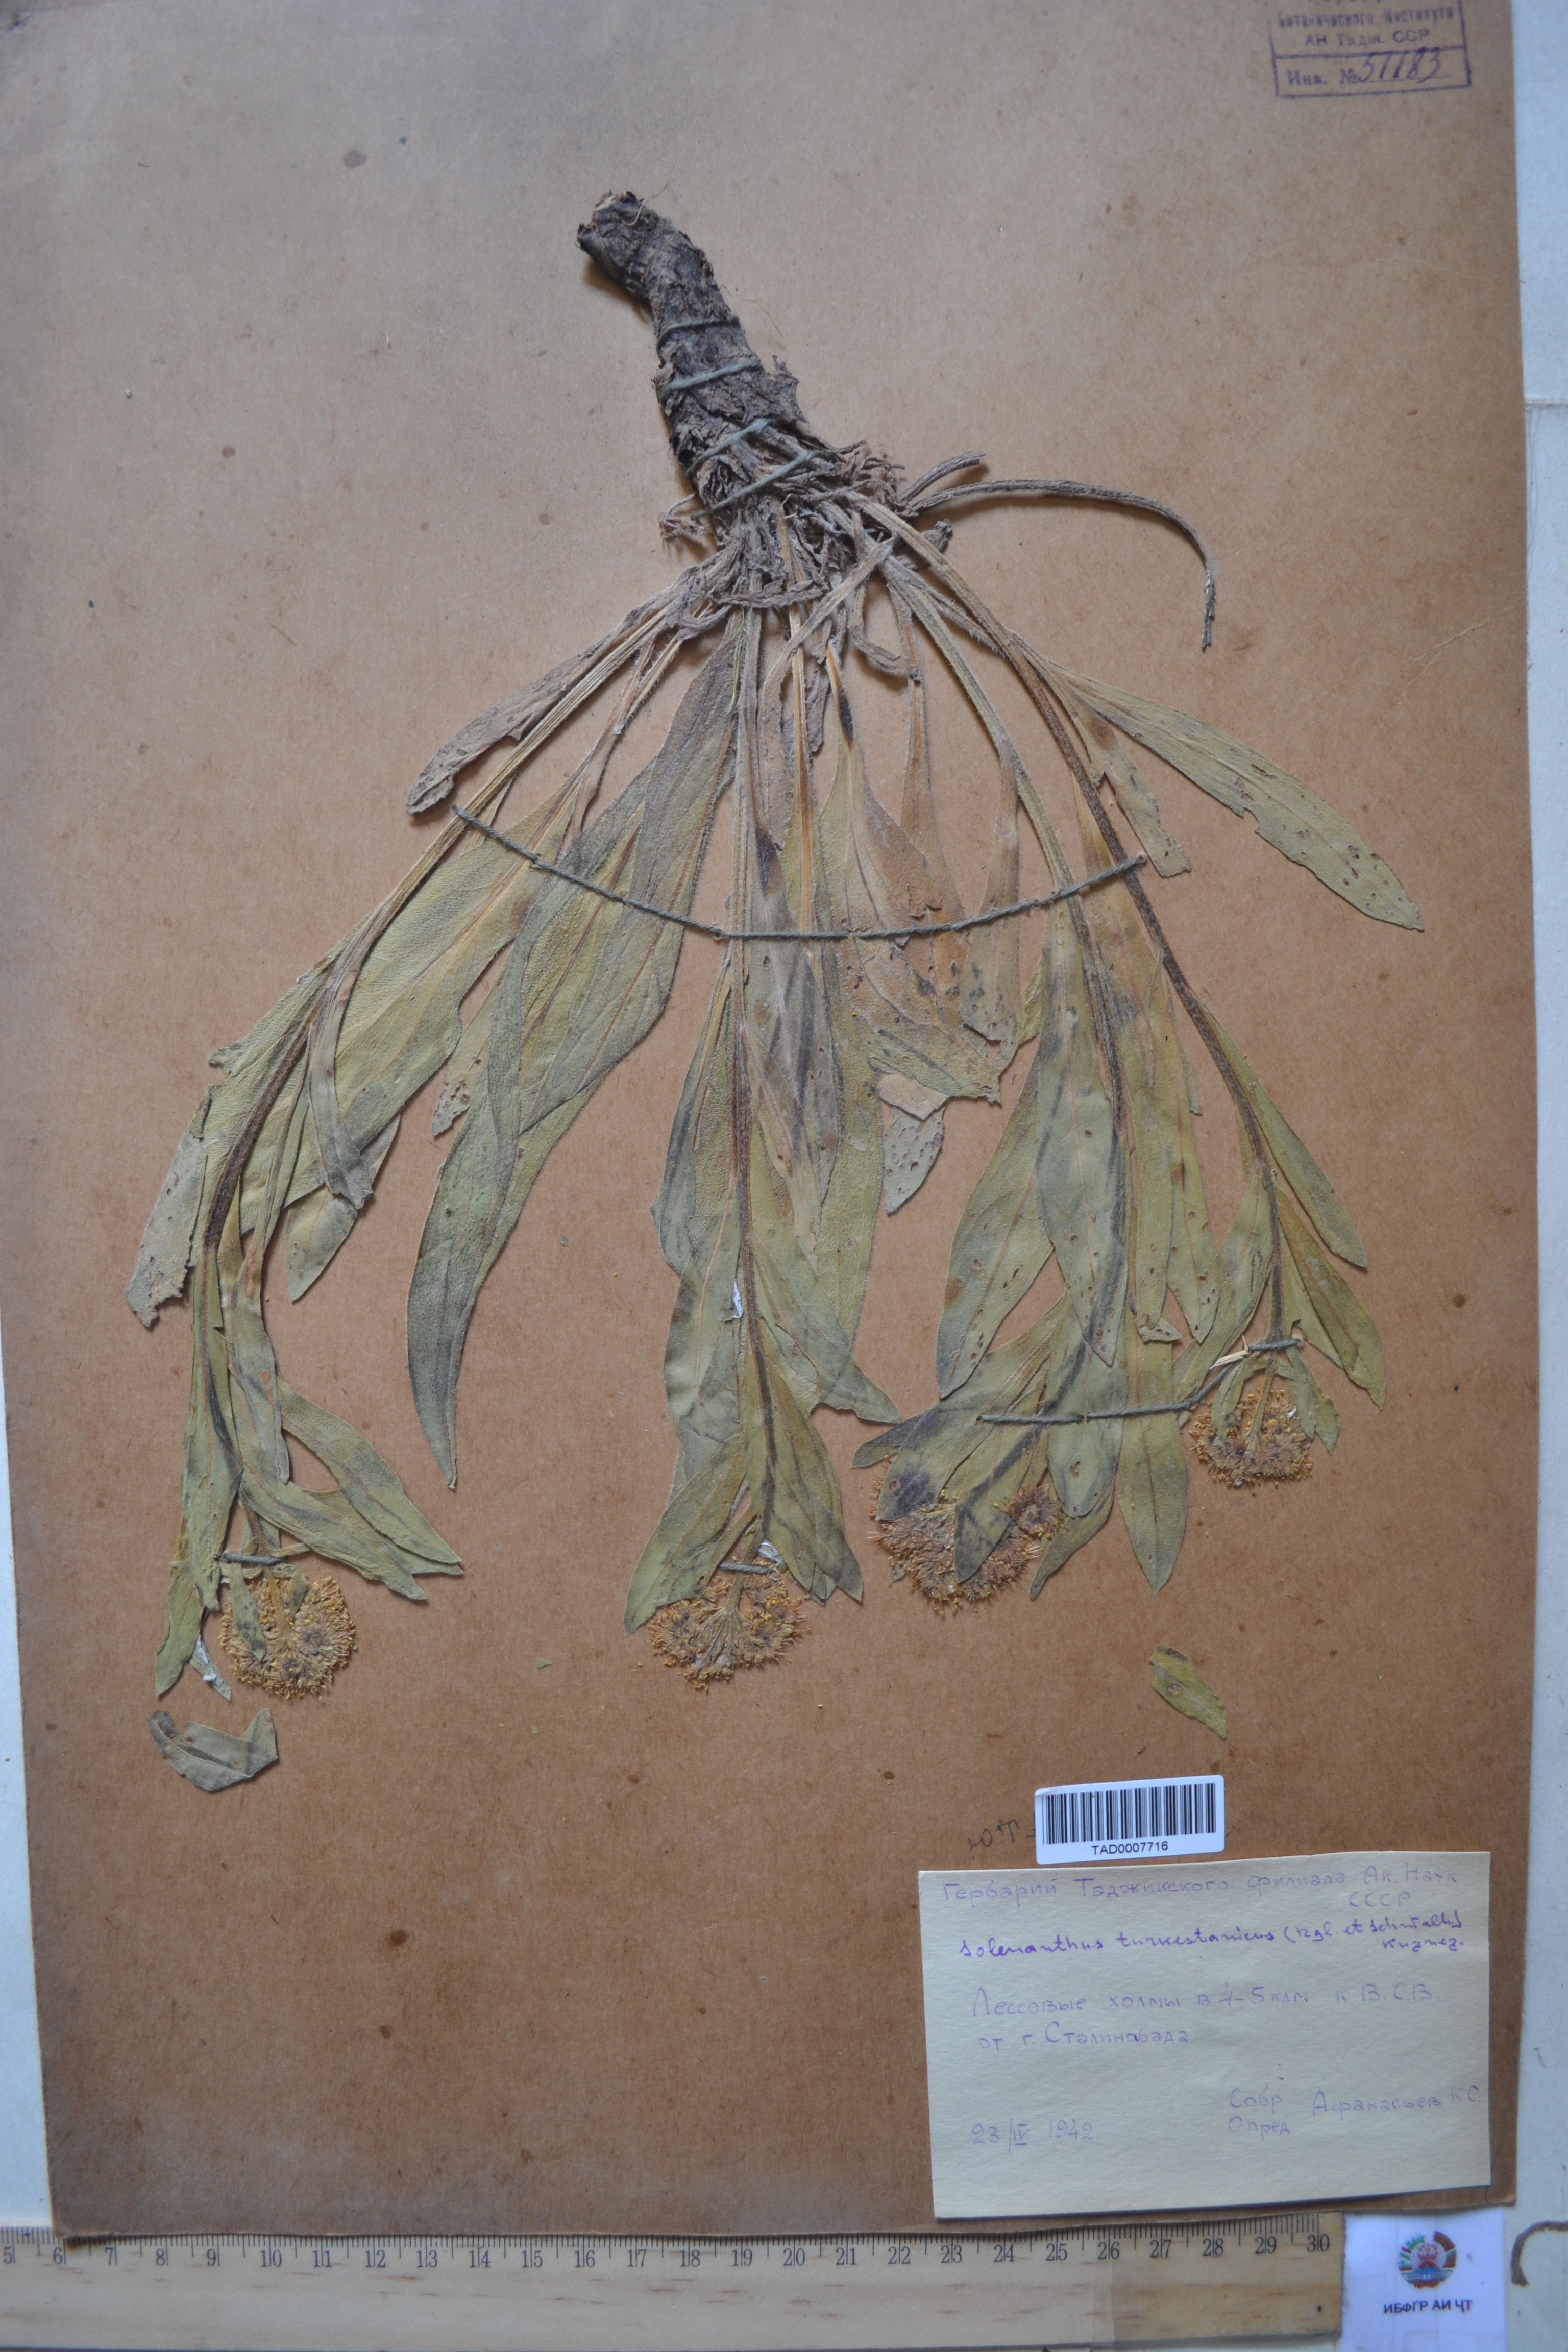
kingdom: Plantae
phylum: Tracheophyta
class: Magnoliopsida
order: Boraginales
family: Boraginaceae
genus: Solenanthus
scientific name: Solenanthus turkestanicus
